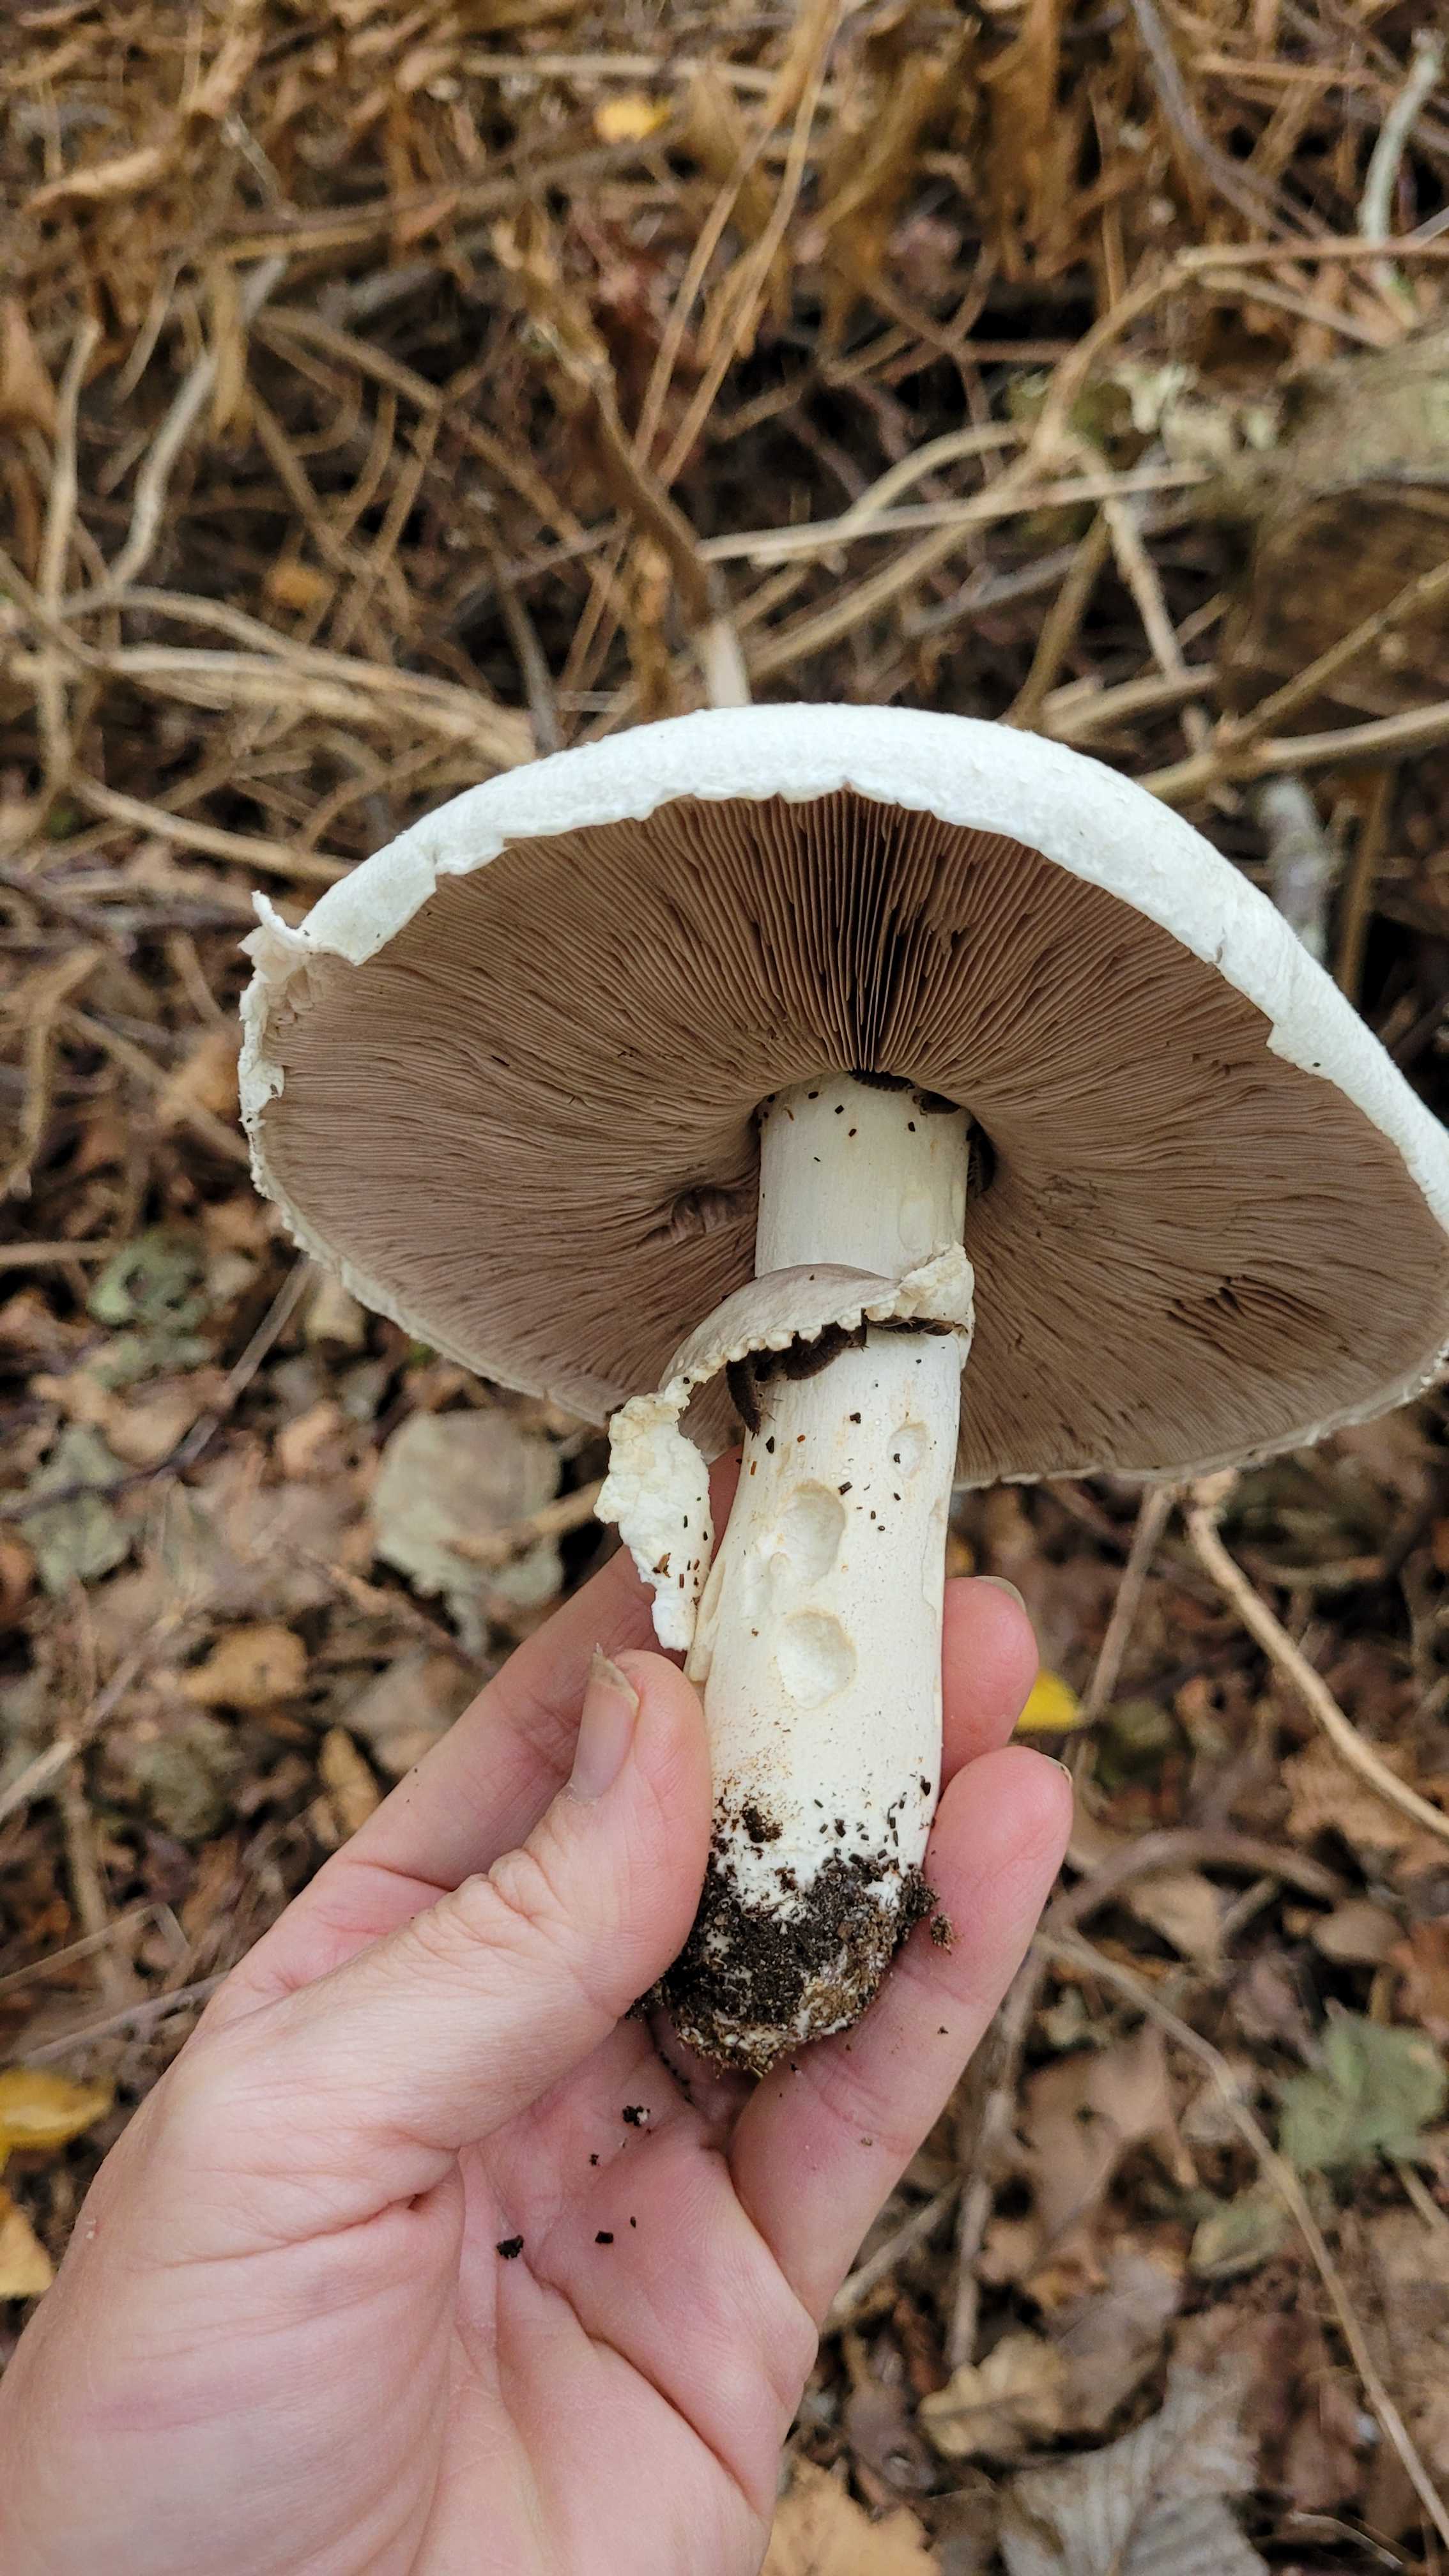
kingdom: Fungi
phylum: Basidiomycota
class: Agaricomycetes
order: Agaricales
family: Agaricaceae
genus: Agaricus
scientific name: Agaricus
